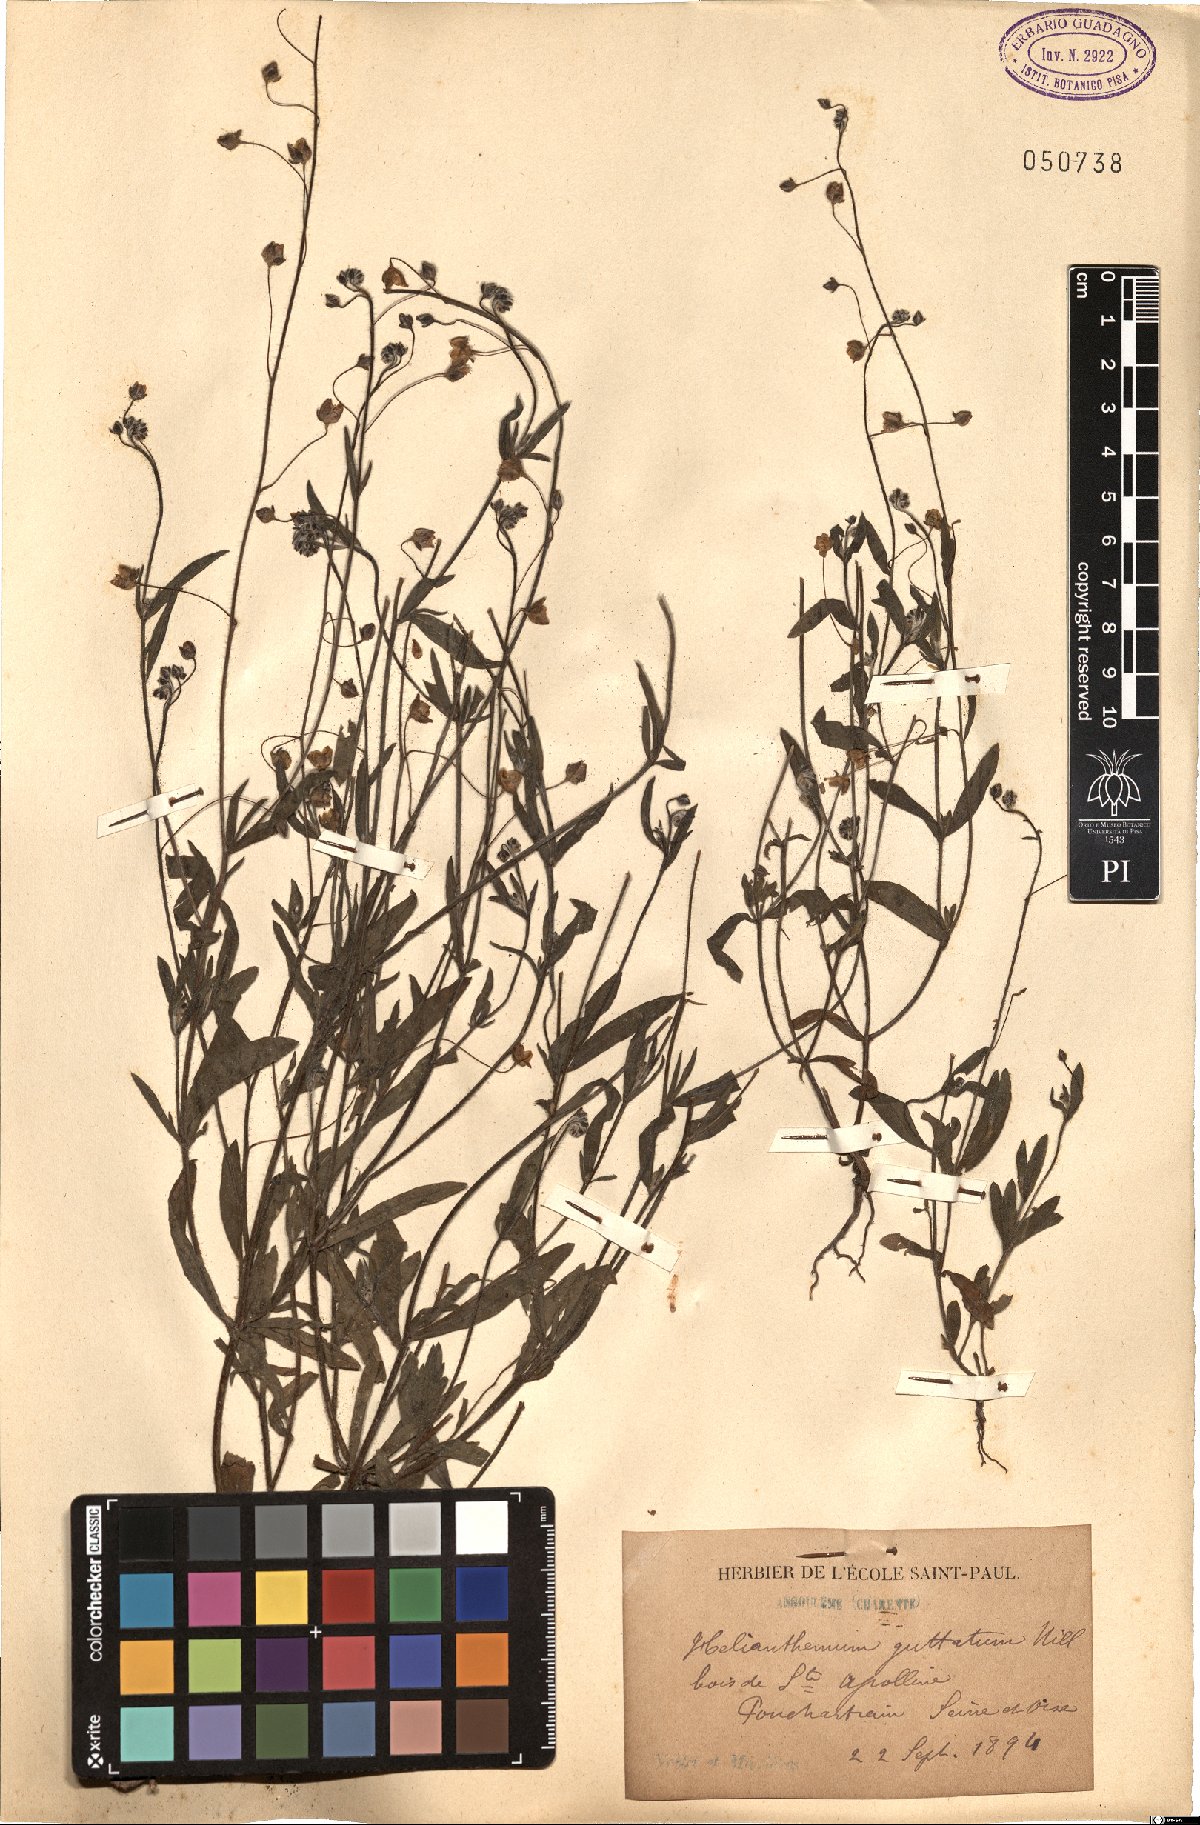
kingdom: Plantae
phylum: Tracheophyta
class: Magnoliopsida
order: Malvales
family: Cistaceae
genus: Tuberaria
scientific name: Tuberaria guttata
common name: Spotted rock-rose
